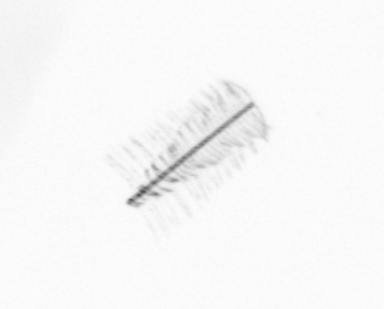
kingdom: Chromista
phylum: Ochrophyta
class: Bacillariophyceae
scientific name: Bacillariophyceae
